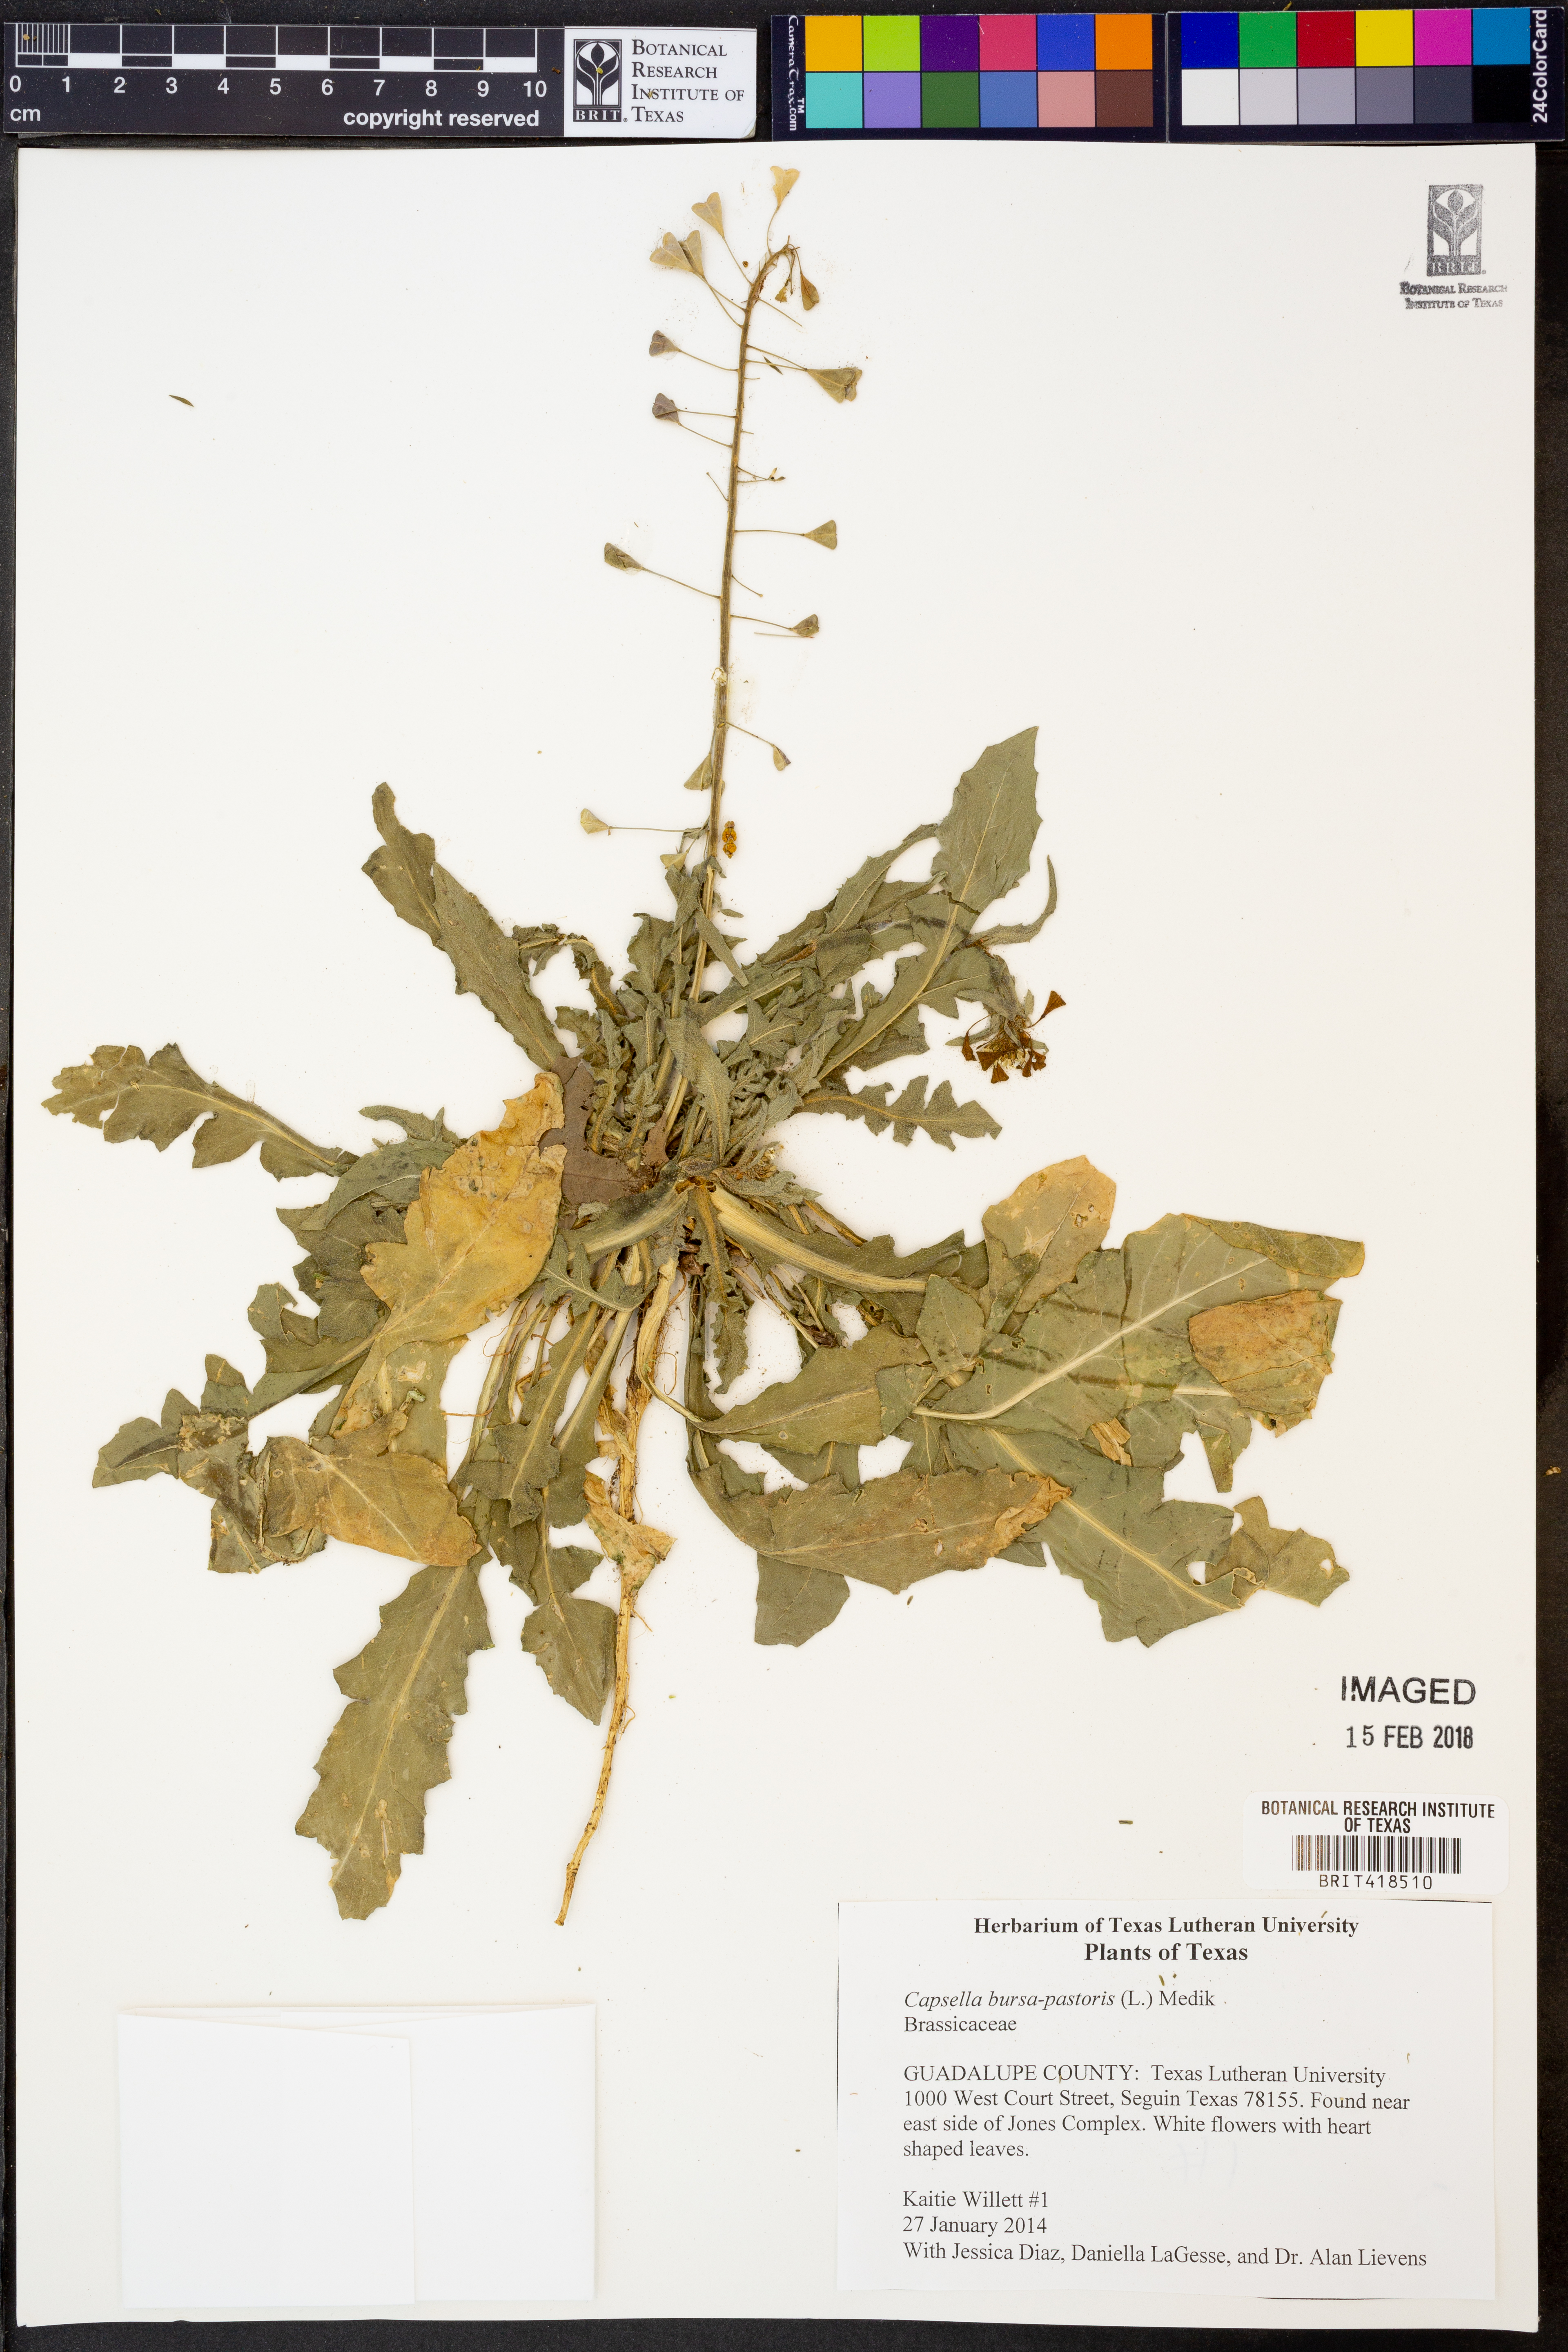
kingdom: Plantae
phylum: Tracheophyta
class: Magnoliopsida
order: Brassicales
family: Brassicaceae
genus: Capsella
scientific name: Capsella bursa-pastoris
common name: Shepherd's purse
